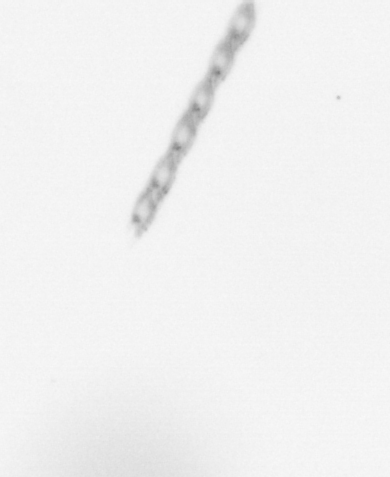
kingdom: Chromista
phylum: Ochrophyta
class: Bacillariophyceae
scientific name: Bacillariophyceae
